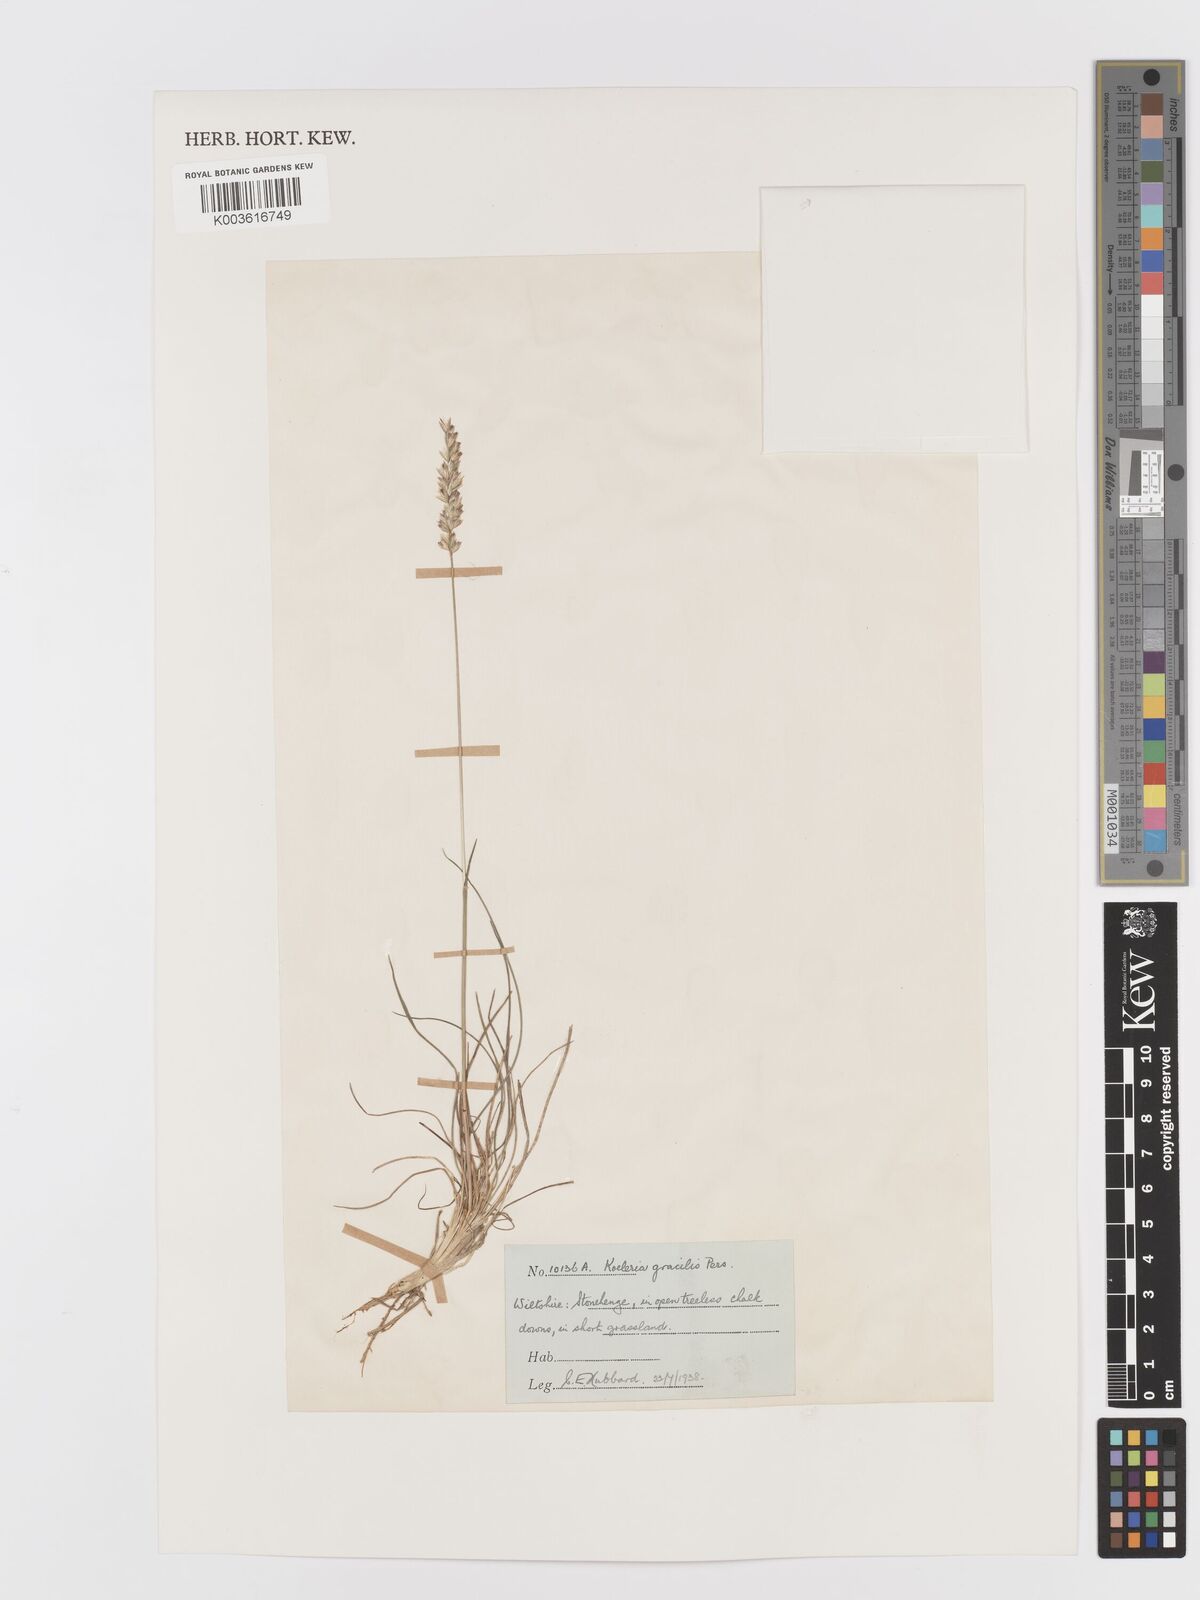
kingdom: Plantae
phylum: Tracheophyta
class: Liliopsida
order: Poales
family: Poaceae
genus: Koeleria
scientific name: Koeleria
